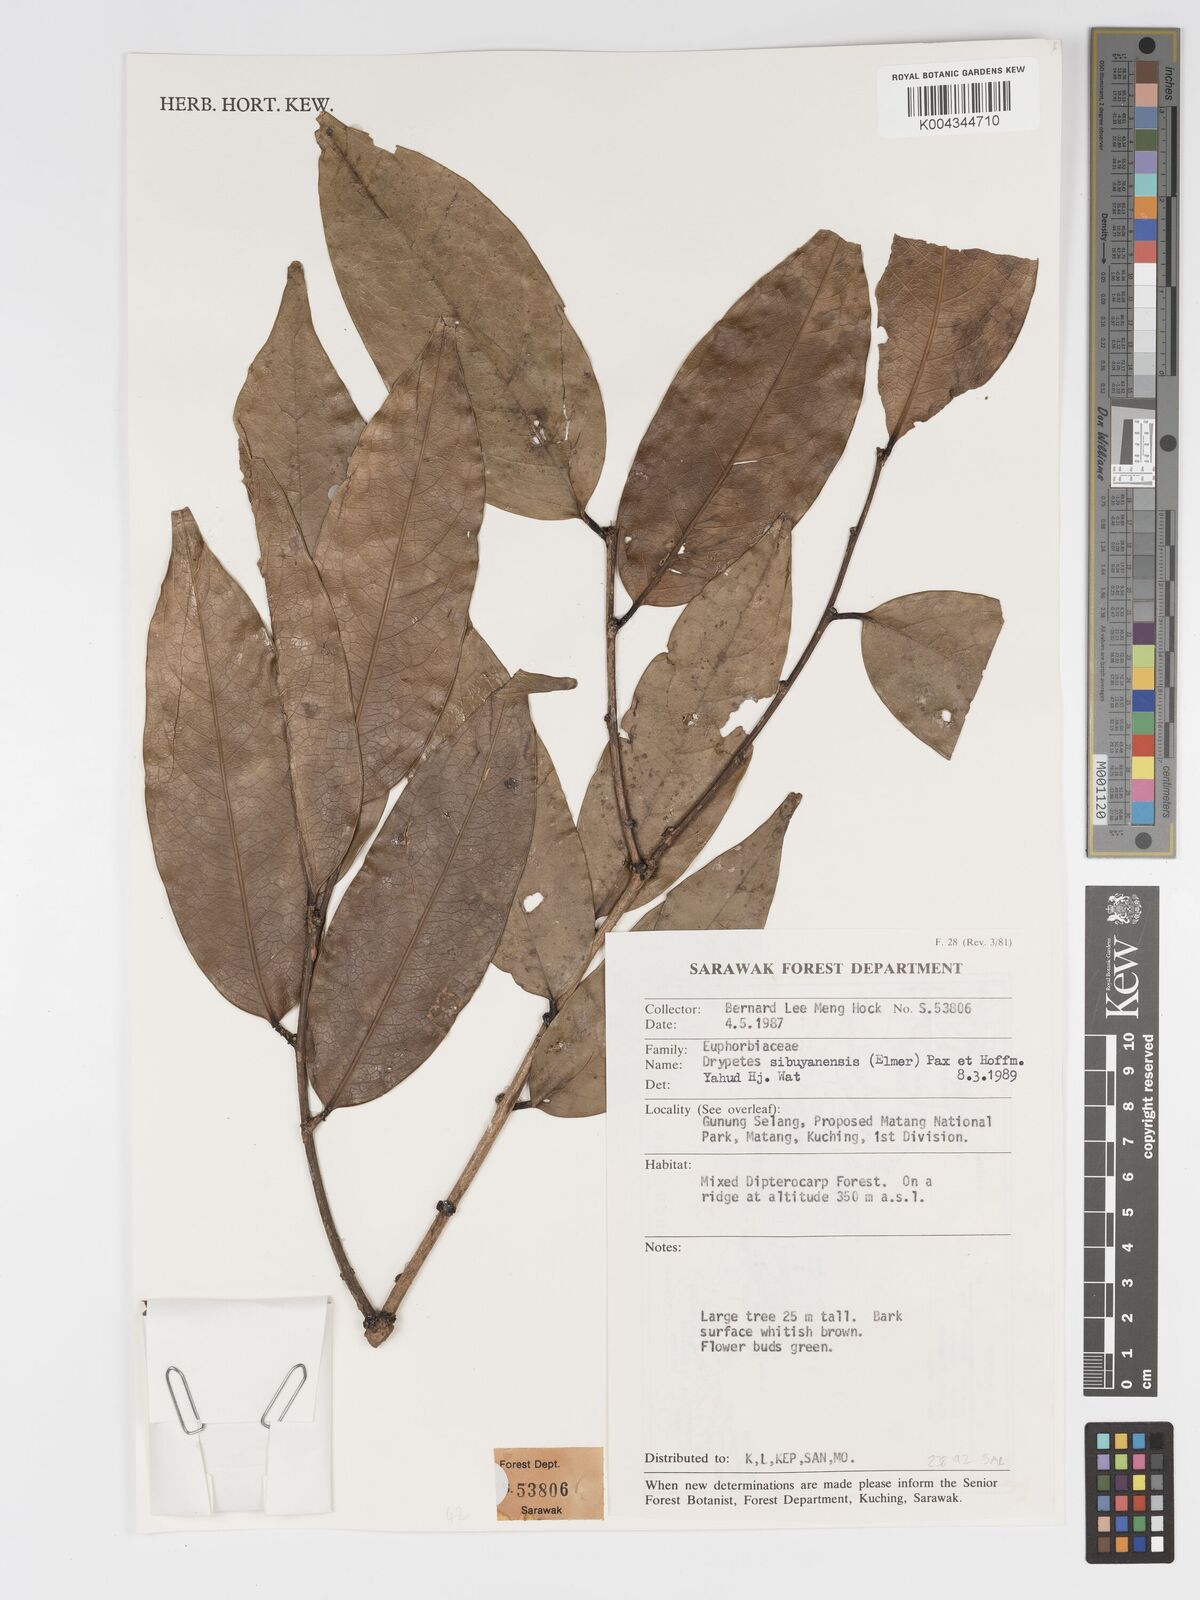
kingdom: Plantae
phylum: Tracheophyta
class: Magnoliopsida
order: Malpighiales
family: Putranjivaceae
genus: Drypetes
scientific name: Drypetes sibuyanensis
